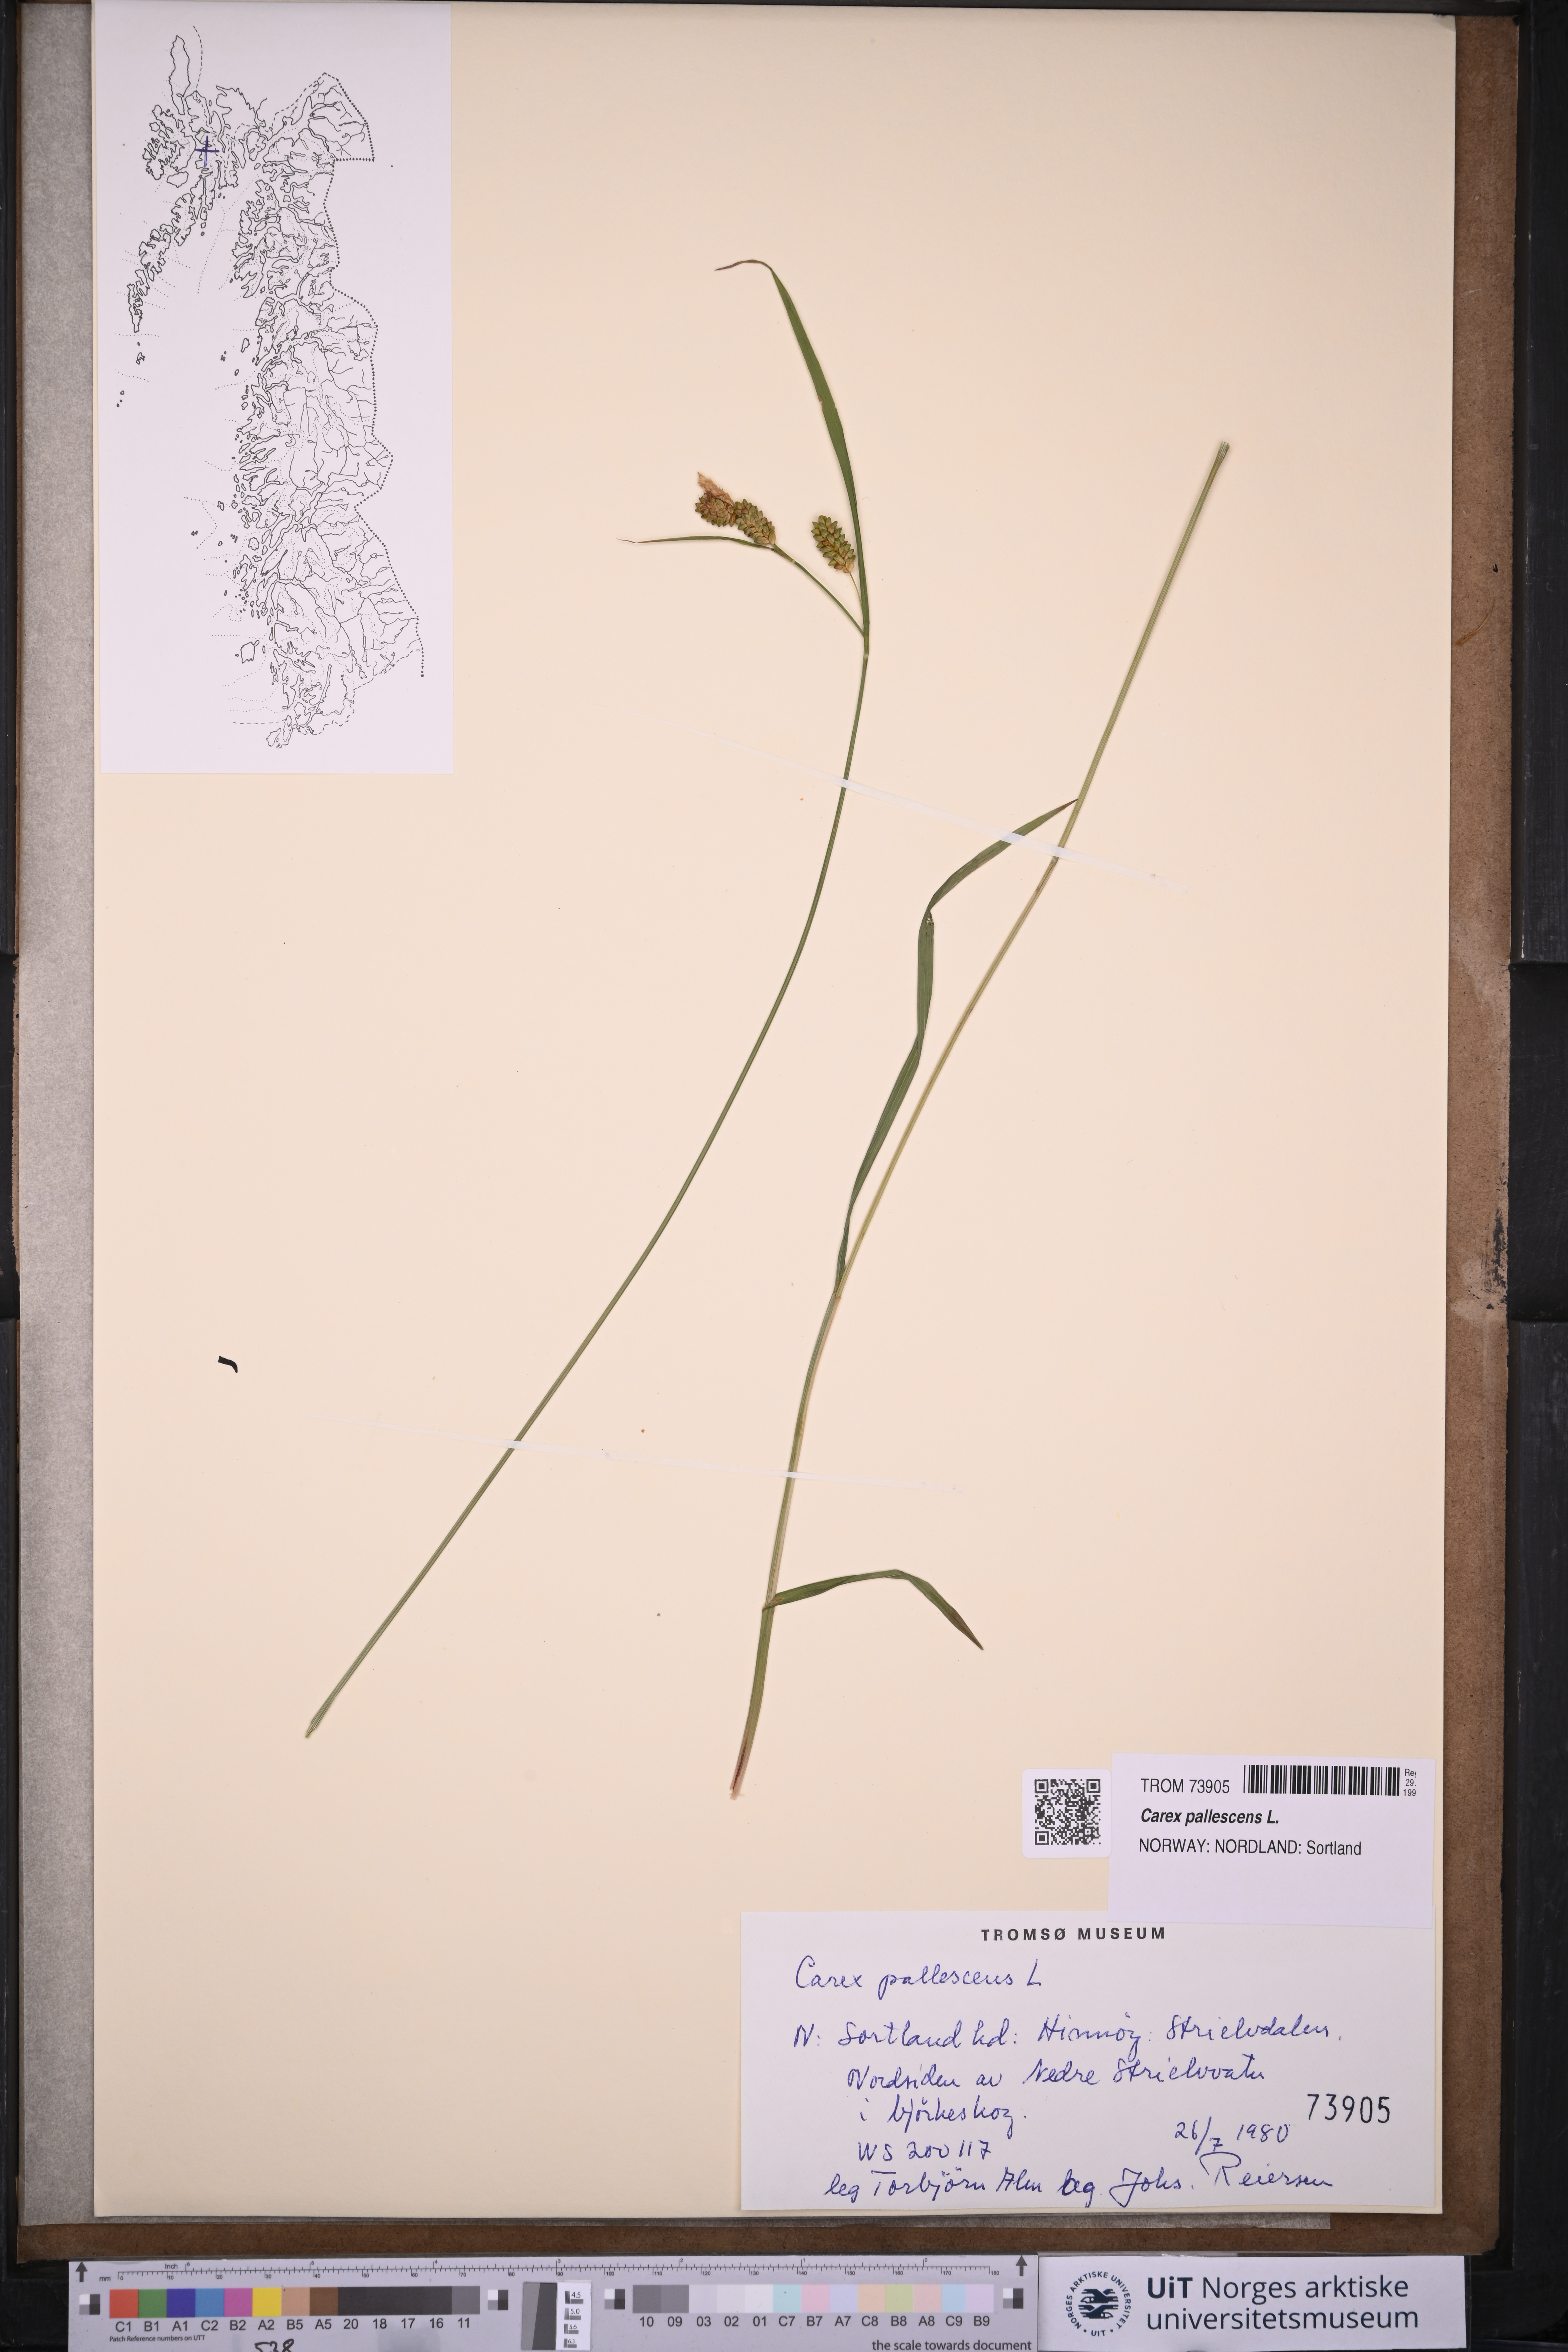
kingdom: Plantae
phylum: Tracheophyta
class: Liliopsida
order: Poales
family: Cyperaceae
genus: Carex
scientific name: Carex pallescens
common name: Pale sedge
